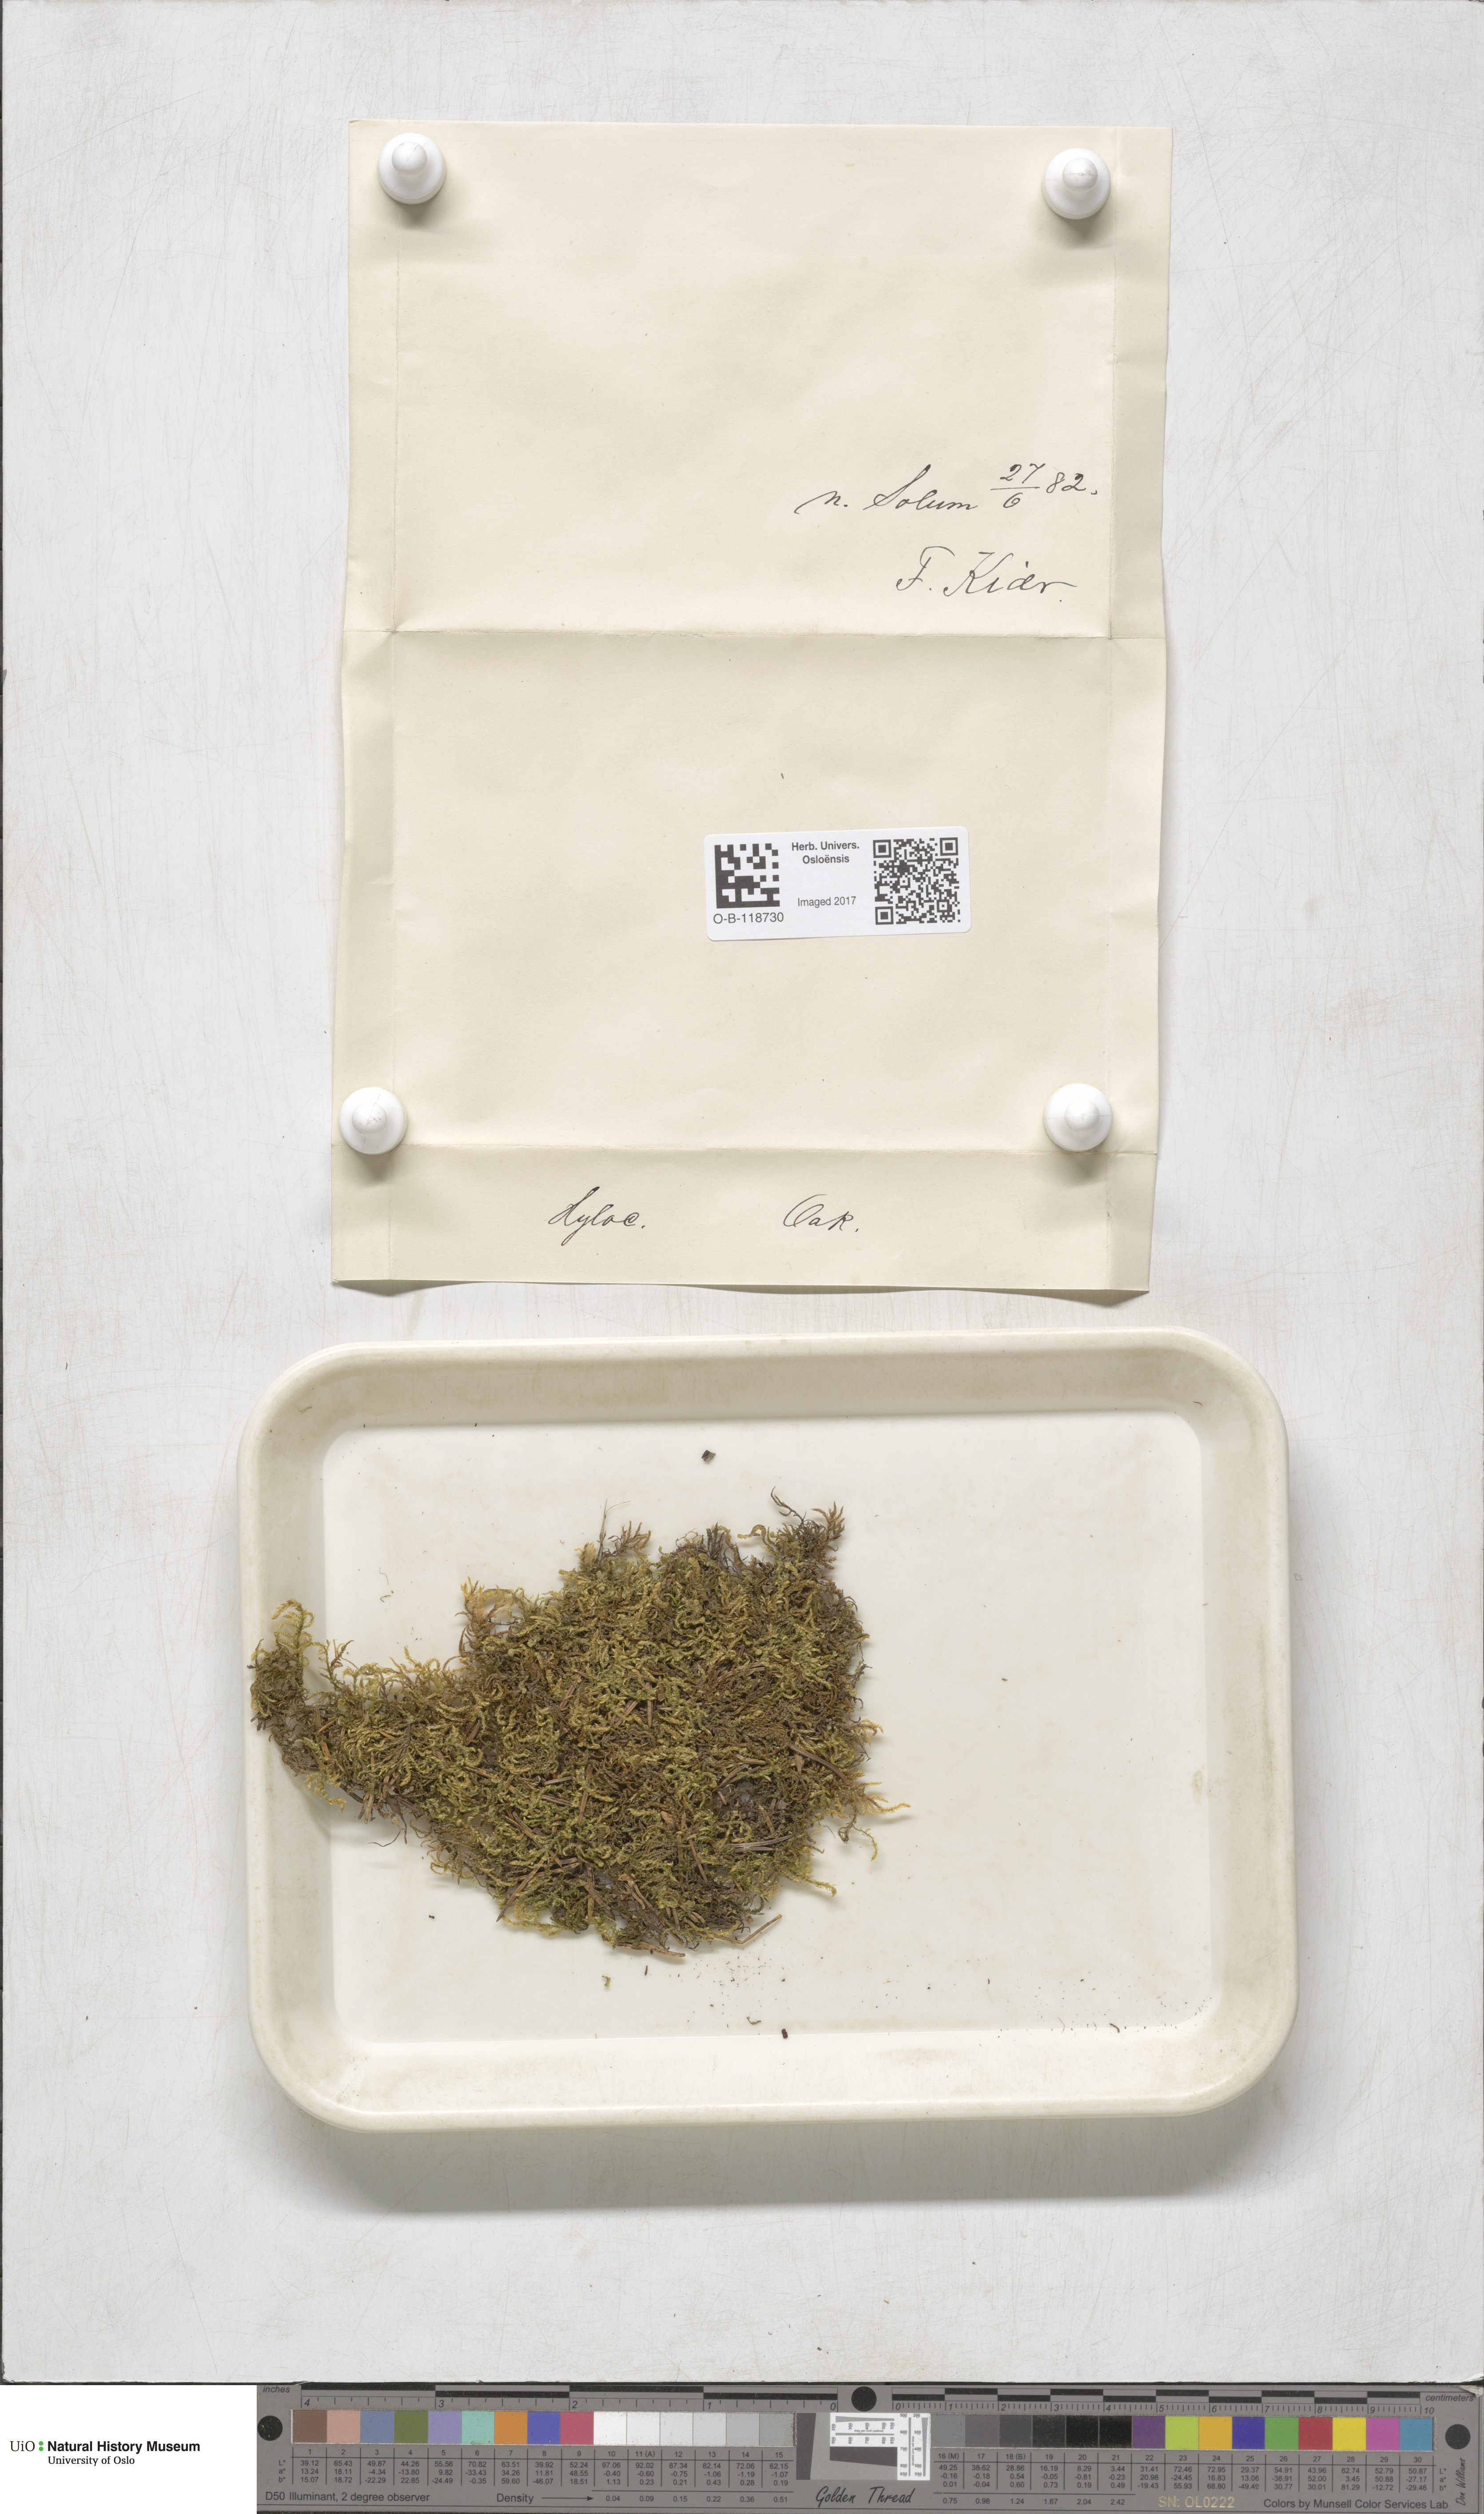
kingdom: Plantae
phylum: Bryophyta
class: Bryopsida
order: Hypnales
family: Hylocomiaceae
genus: Hylocomiastrum
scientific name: Hylocomiastrum pyrenaicum
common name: Oake s wood moss
